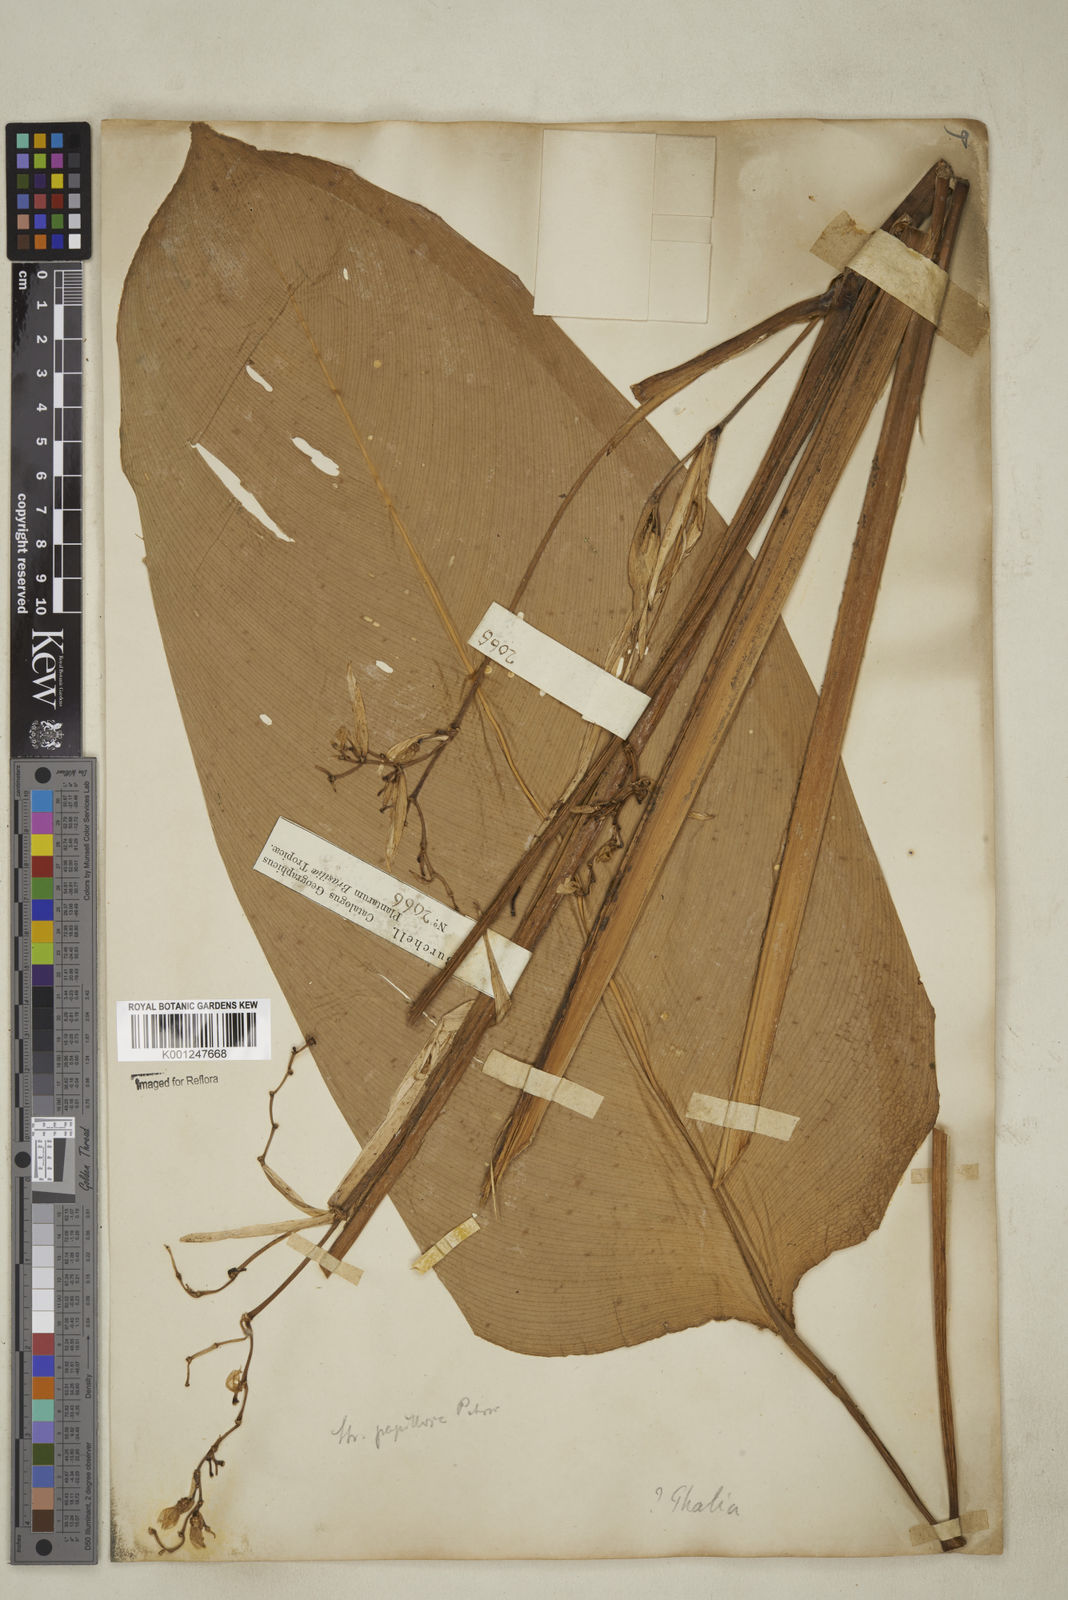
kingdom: Plantae
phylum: Tracheophyta
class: Liliopsida
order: Zingiberales
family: Marantaceae
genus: Stromanthe
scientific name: Stromanthe papillosa
